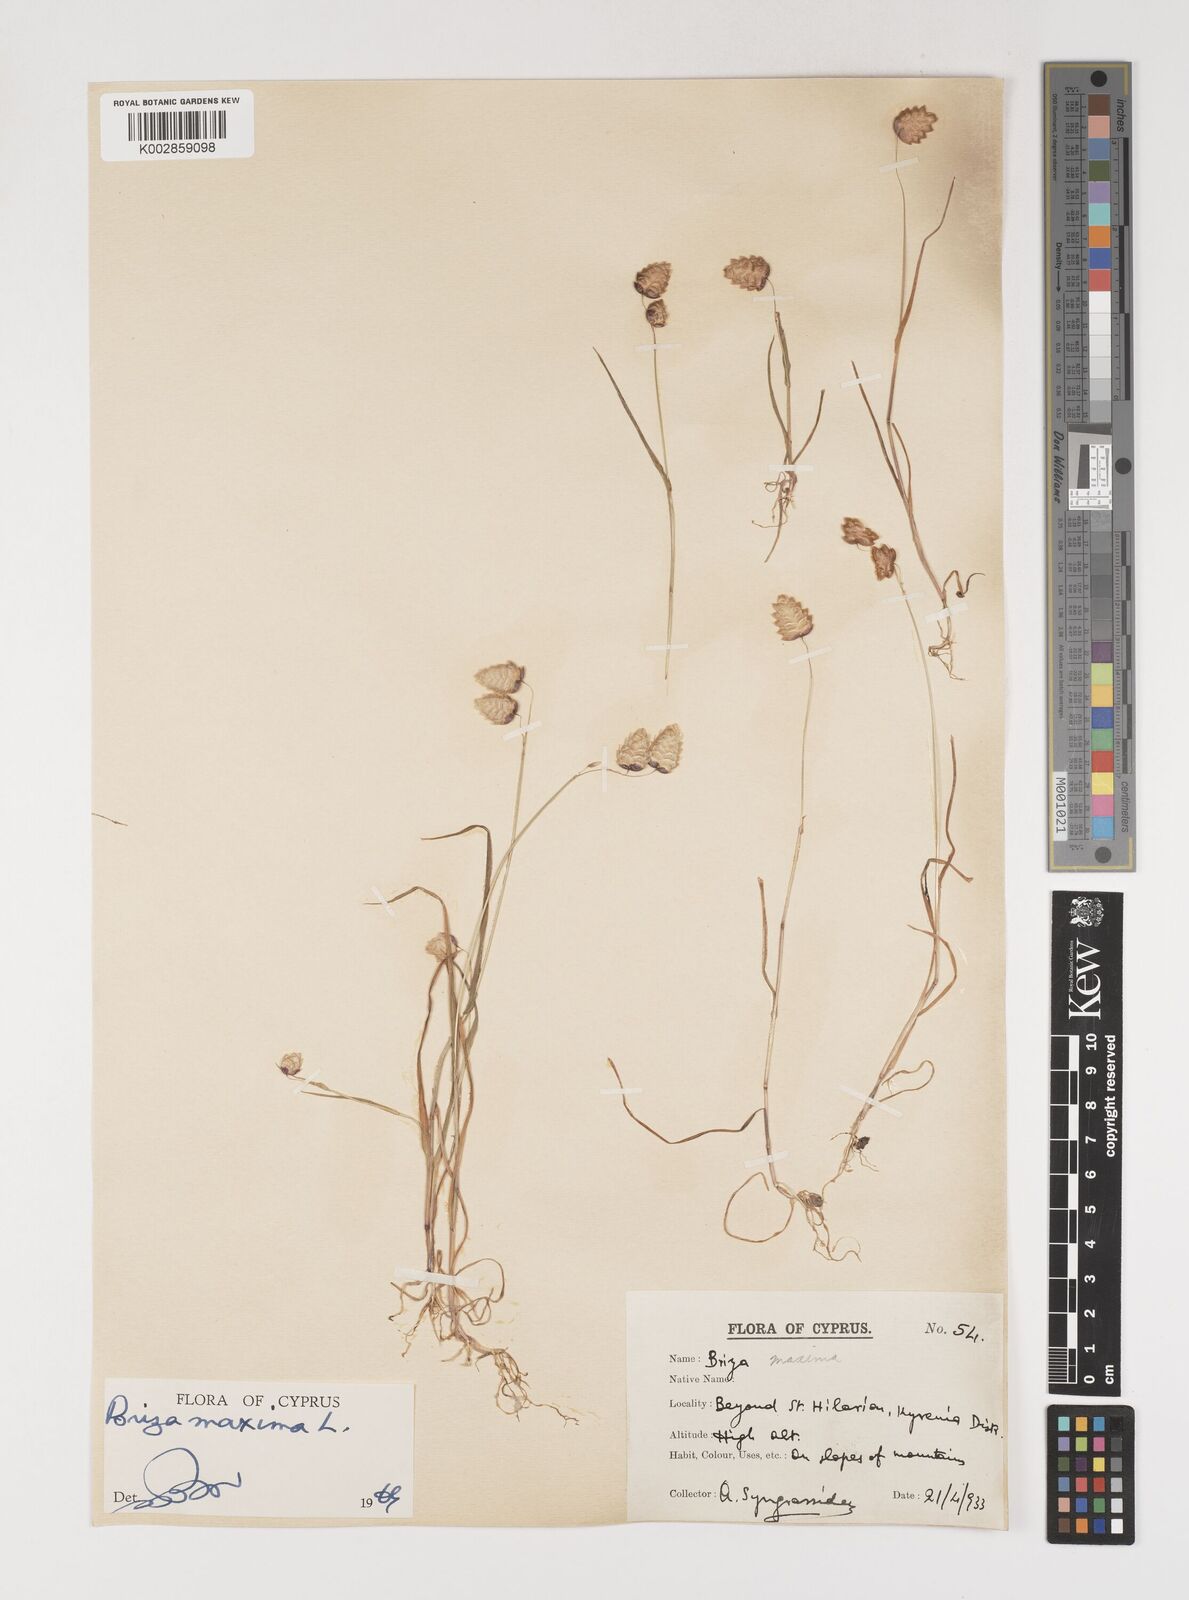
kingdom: Plantae
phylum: Tracheophyta
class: Liliopsida
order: Poales
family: Poaceae
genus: Briza
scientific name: Briza maxima
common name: Big quakinggrass
